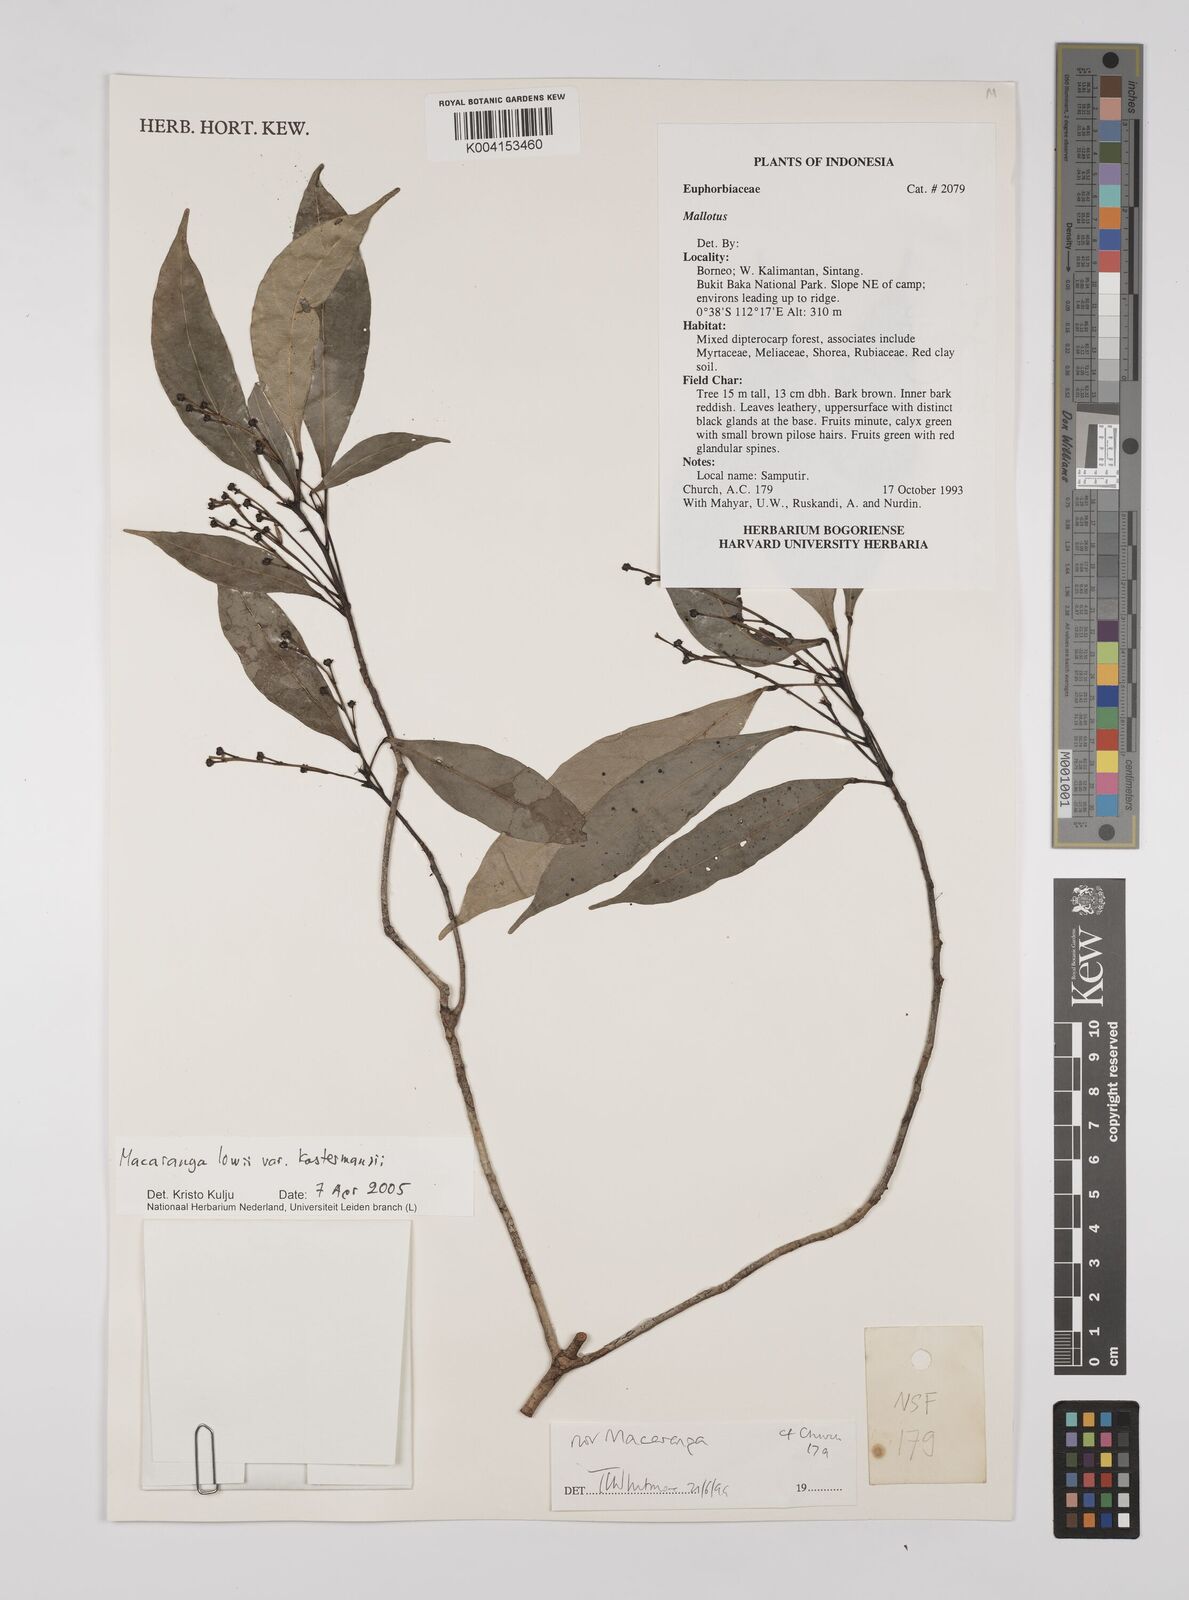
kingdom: Plantae
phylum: Tracheophyta
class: Magnoliopsida
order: Malpighiales
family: Euphorbiaceae
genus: Macaranga
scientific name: Macaranga lowii
